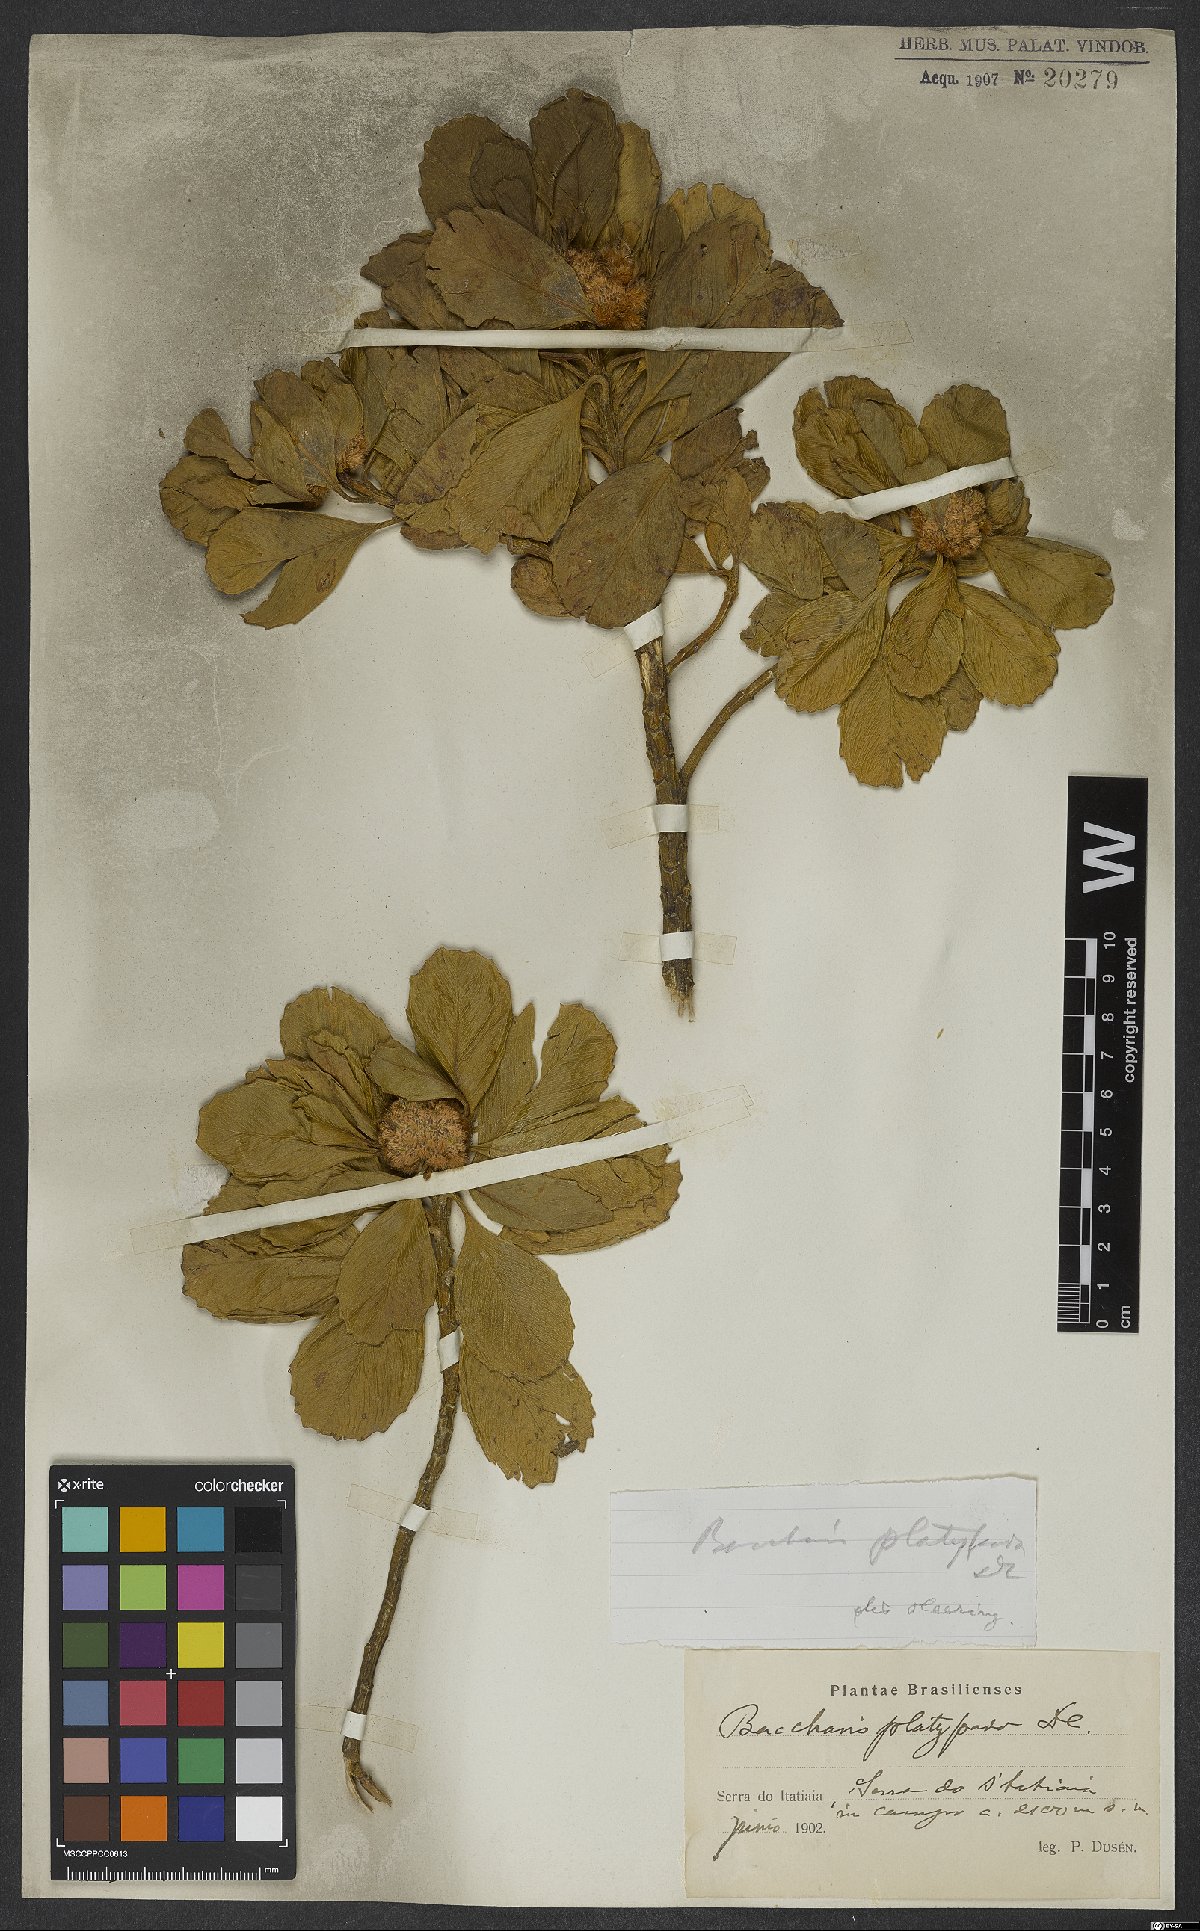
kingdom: Plantae
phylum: Tracheophyta
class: Magnoliopsida
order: Asterales
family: Asteraceae
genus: Baccharis
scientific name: Baccharis platypoda
